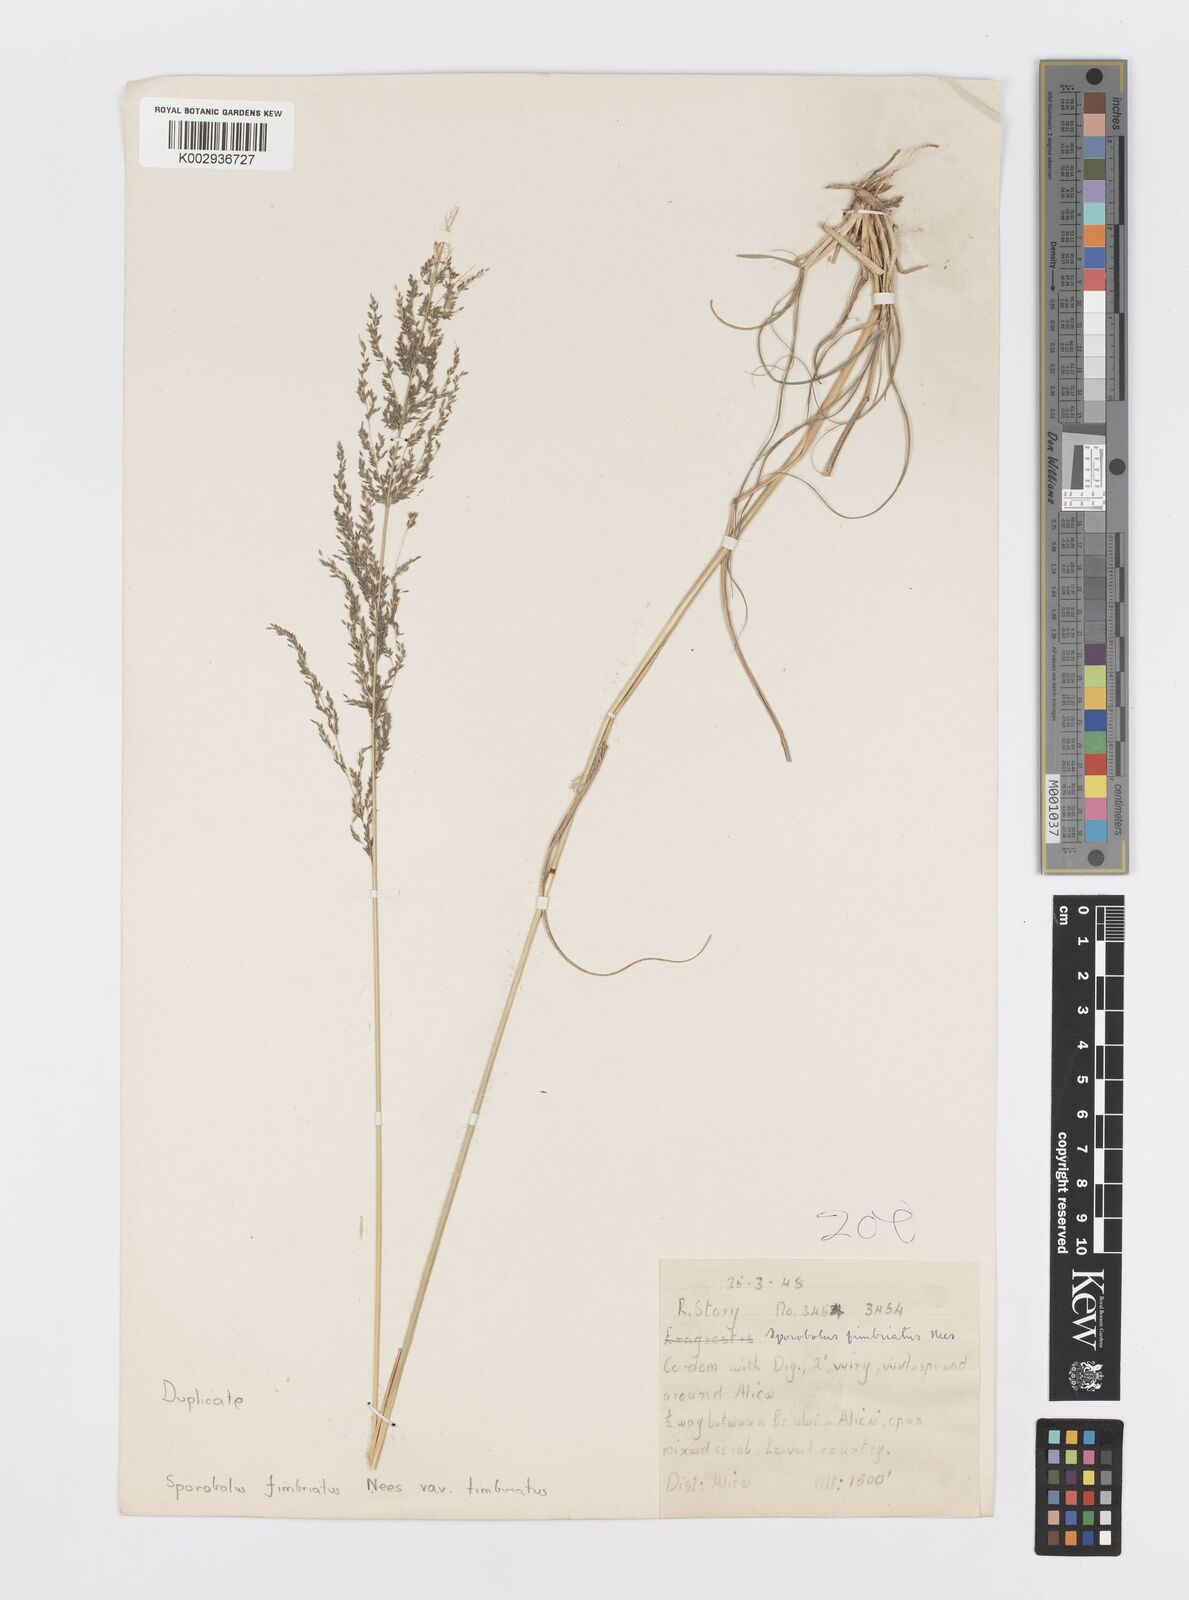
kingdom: Plantae
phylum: Tracheophyta
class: Liliopsida
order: Poales
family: Poaceae
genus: Sporobolus
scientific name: Sporobolus fimbriatus
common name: Fringed dropseed
